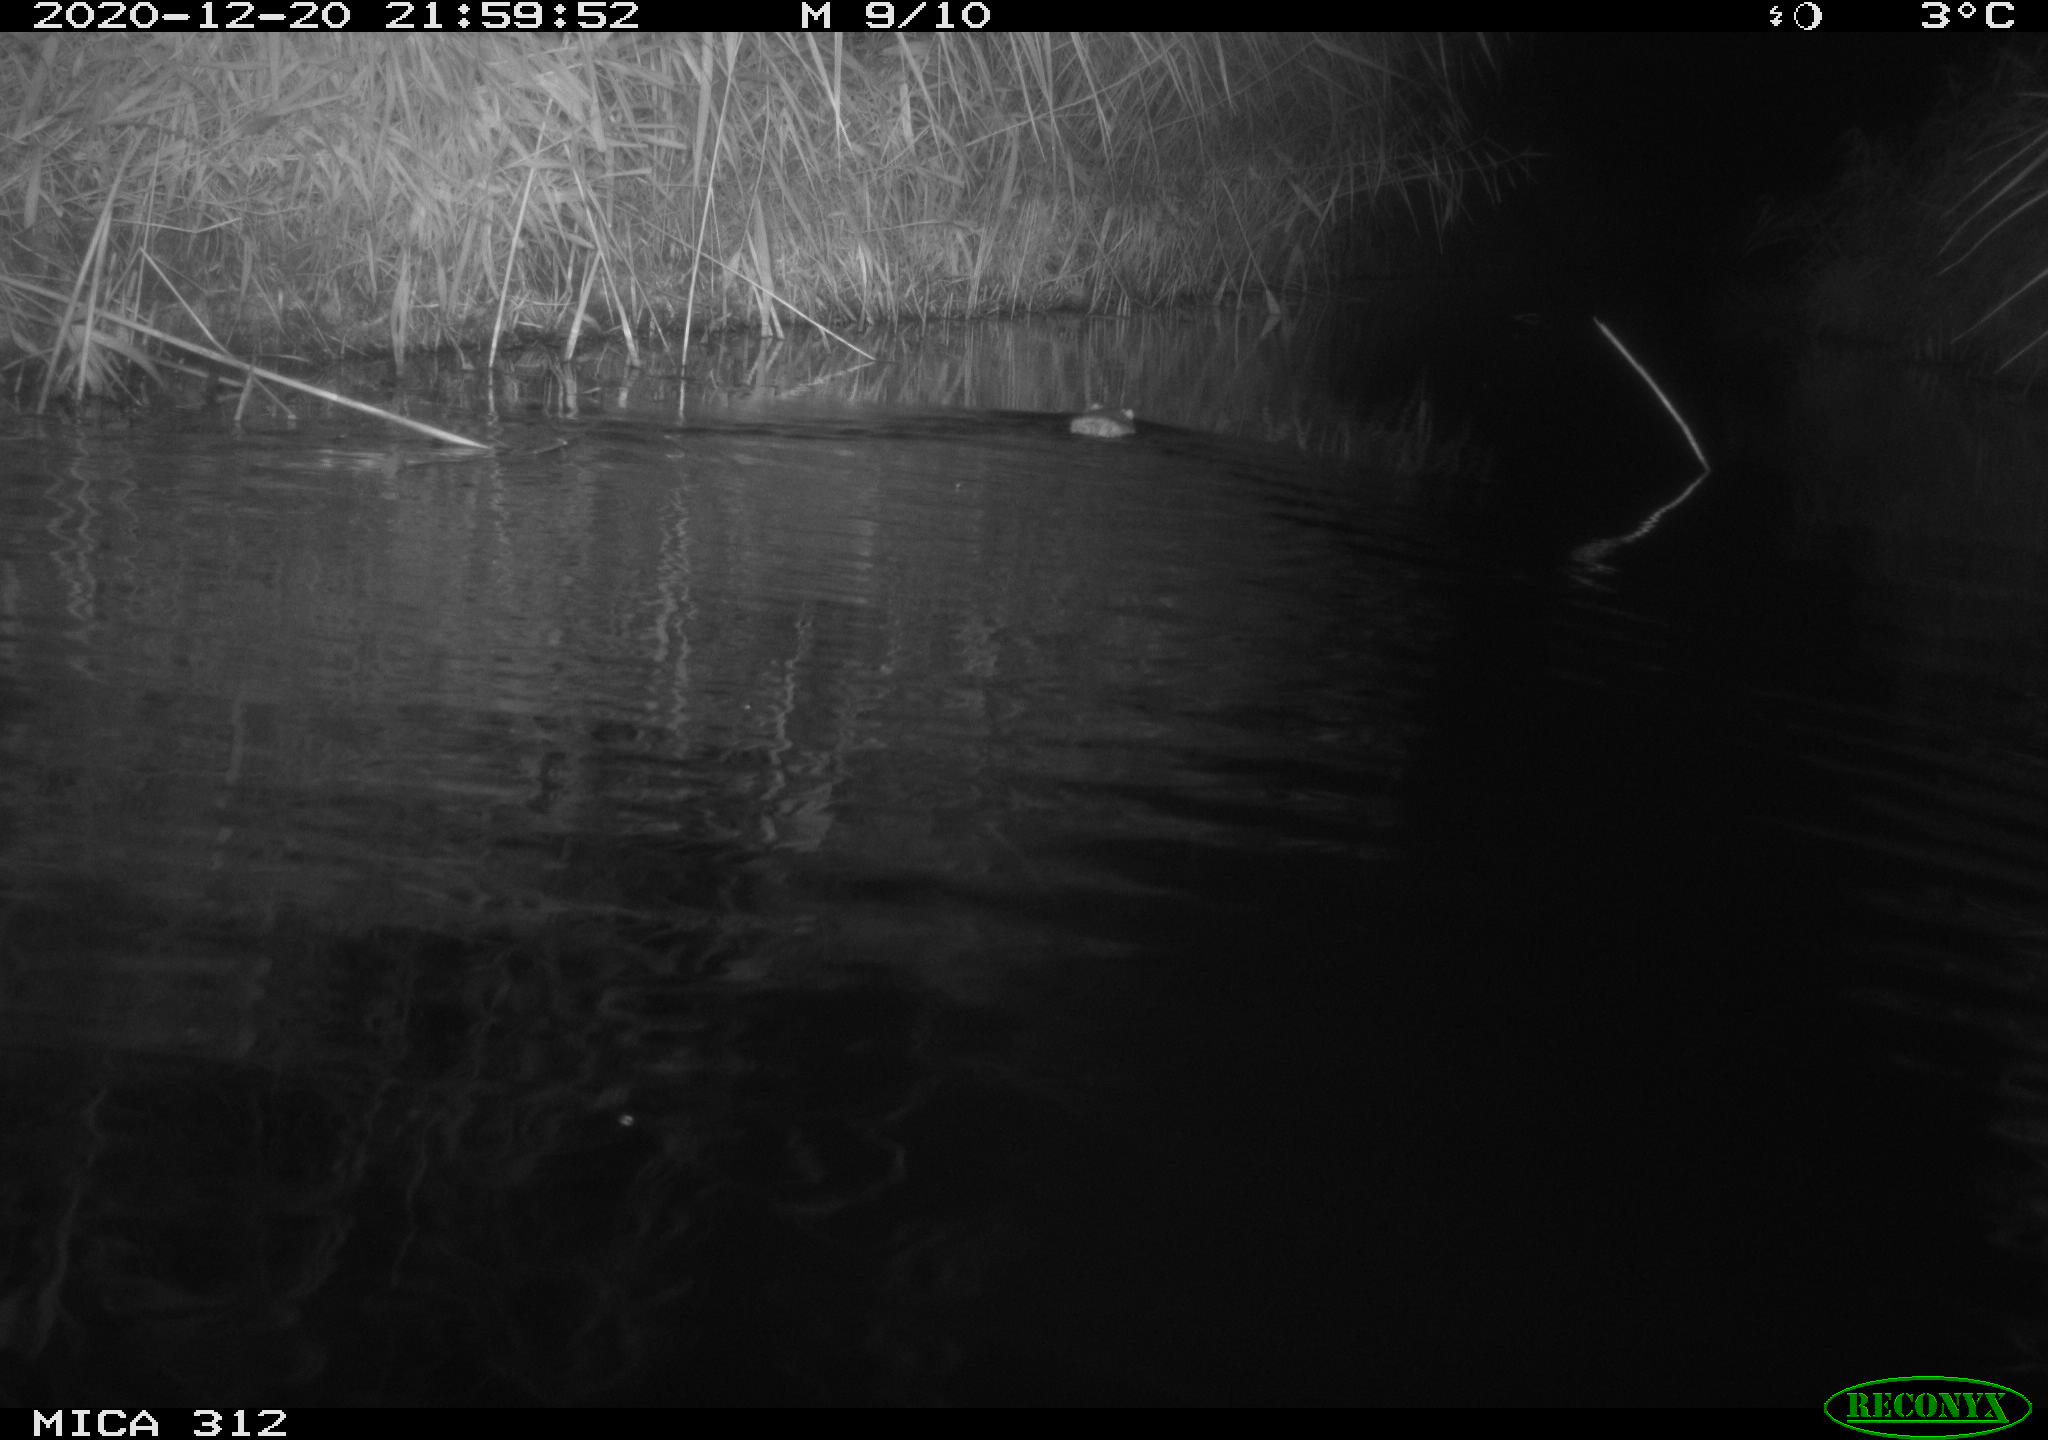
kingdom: Animalia
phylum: Chordata
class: Mammalia
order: Rodentia
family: Muridae
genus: Rattus
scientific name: Rattus norvegicus
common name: Brown rat
